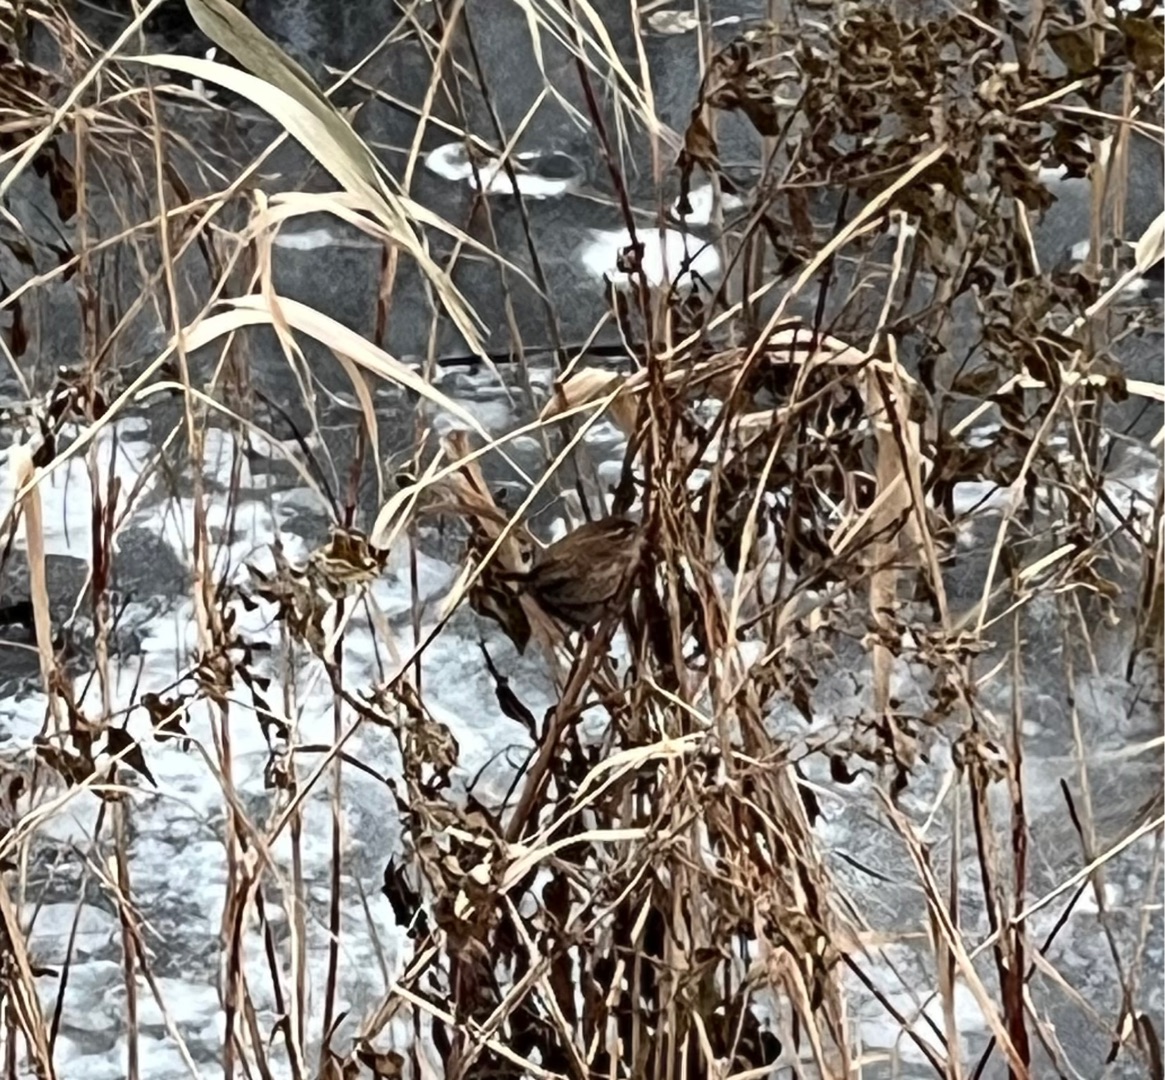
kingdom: Animalia
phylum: Chordata
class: Aves
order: Passeriformes
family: Troglodytidae
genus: Troglodytes
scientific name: Troglodytes troglodytes
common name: Gærdesmutte
